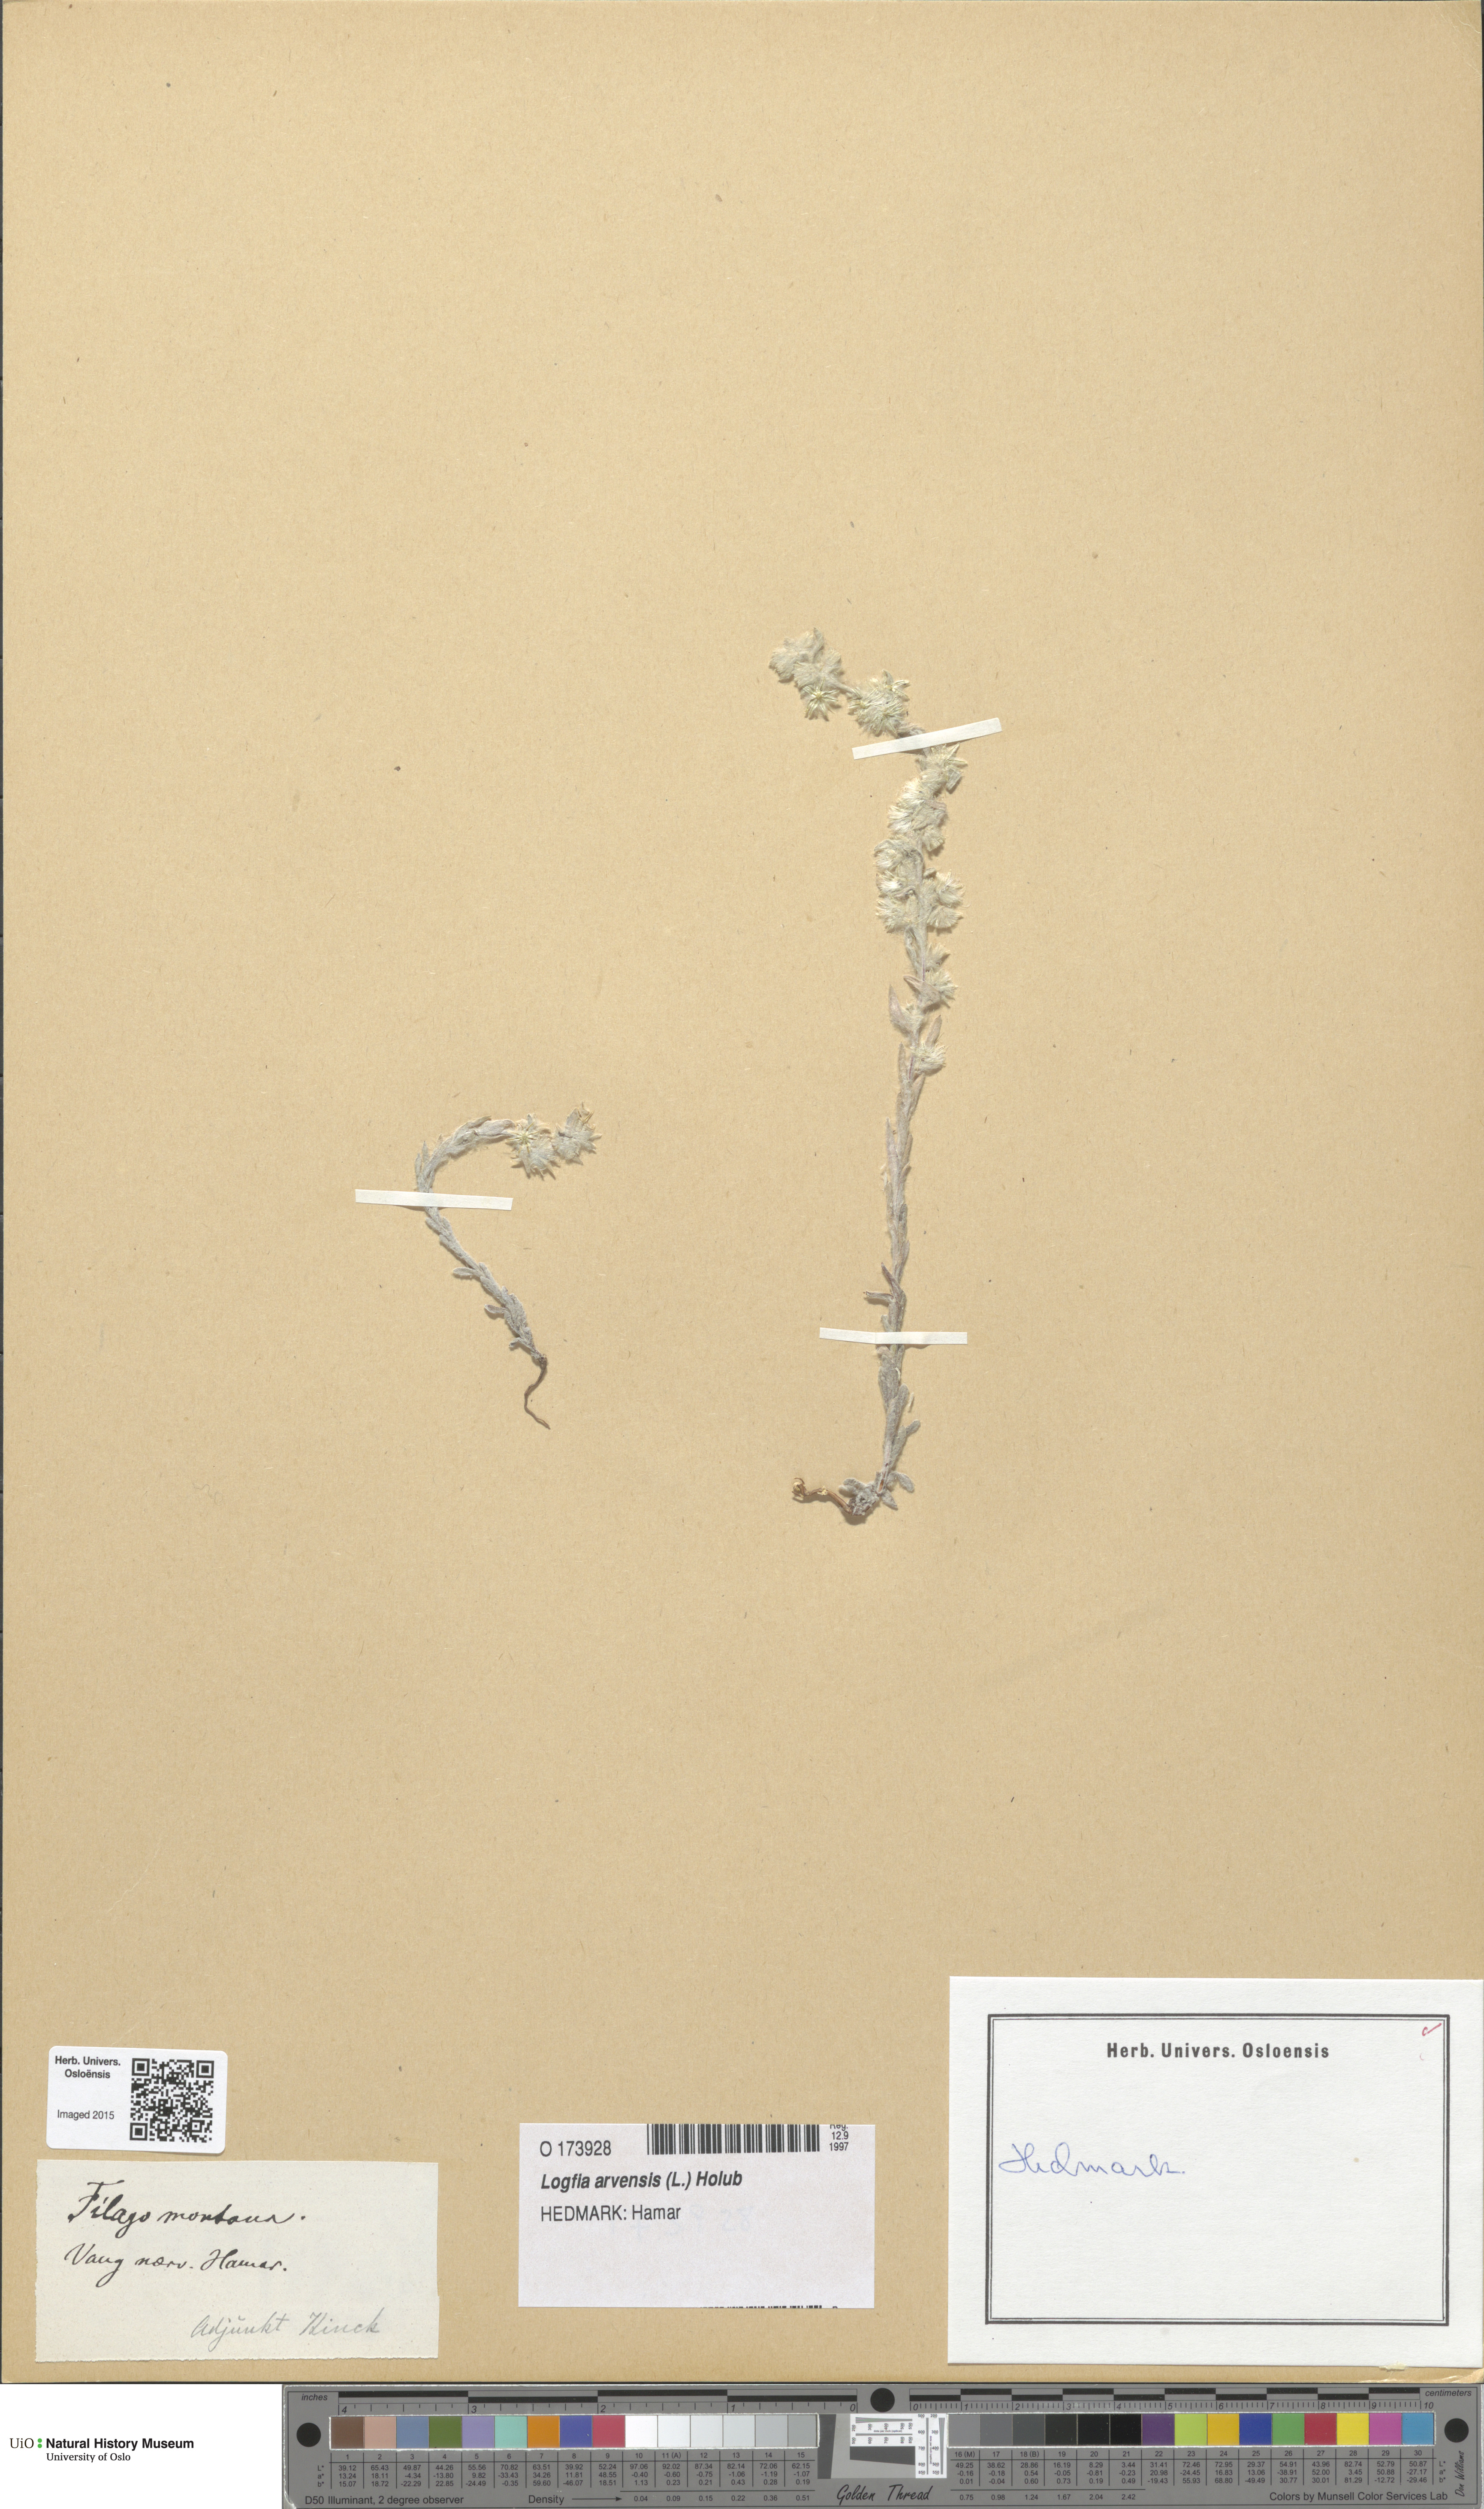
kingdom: Plantae
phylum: Tracheophyta
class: Magnoliopsida
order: Asterales
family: Asteraceae
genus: Filago
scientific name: Filago arvensis
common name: Field cudweed
